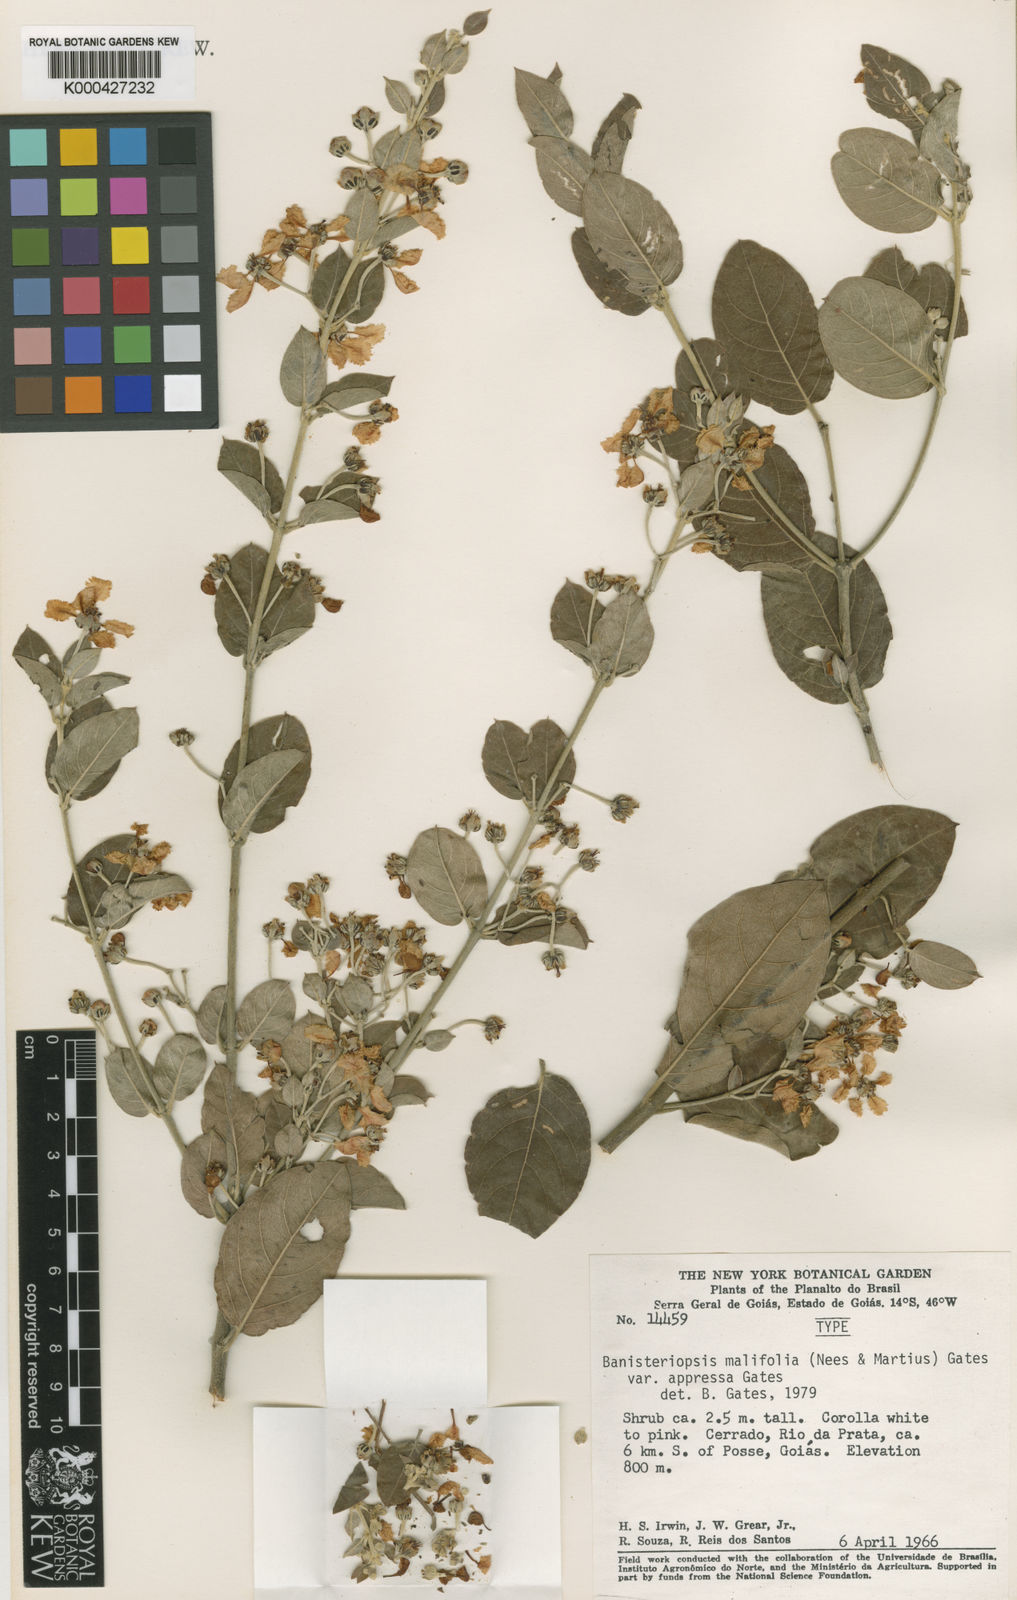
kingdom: Plantae
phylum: Tracheophyta
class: Magnoliopsida
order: Malpighiales
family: Malpighiaceae
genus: Banisteriopsis
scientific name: Banisteriopsis malifolia
